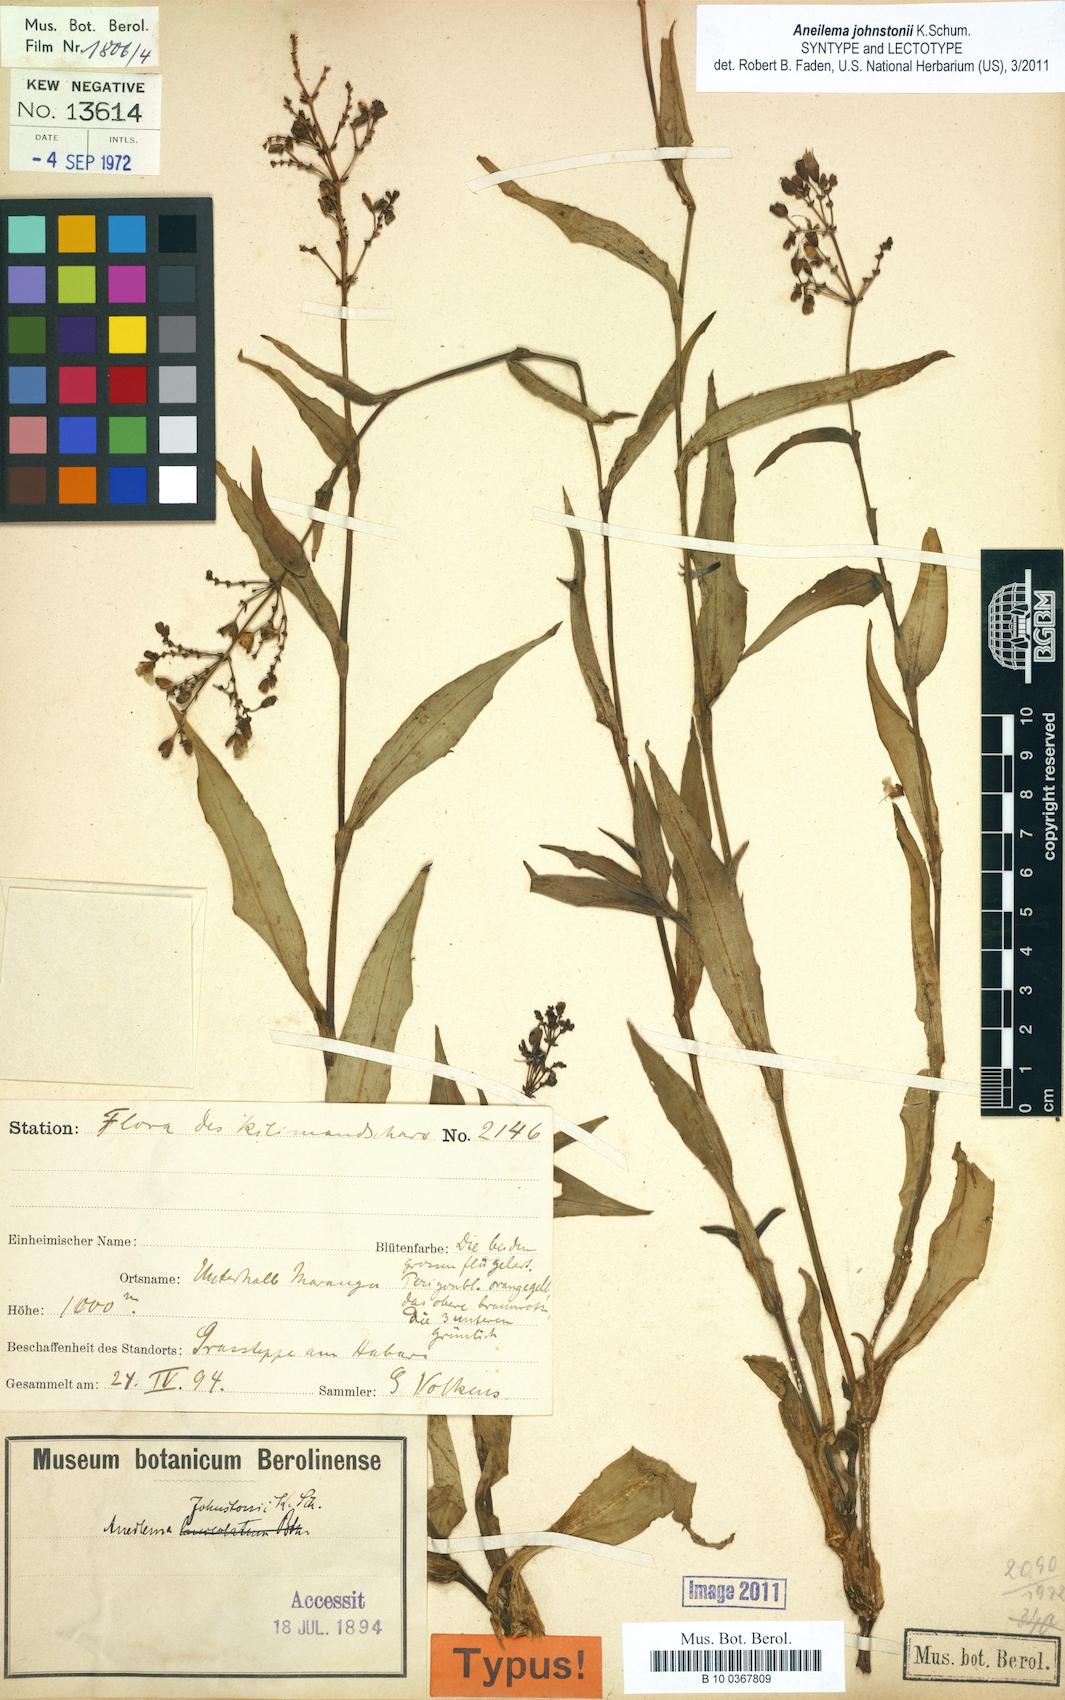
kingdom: Plantae
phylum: Tracheophyta
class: Liliopsida
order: Commelinales
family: Commelinaceae
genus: Aneilema
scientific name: Aneilema johnstonii
